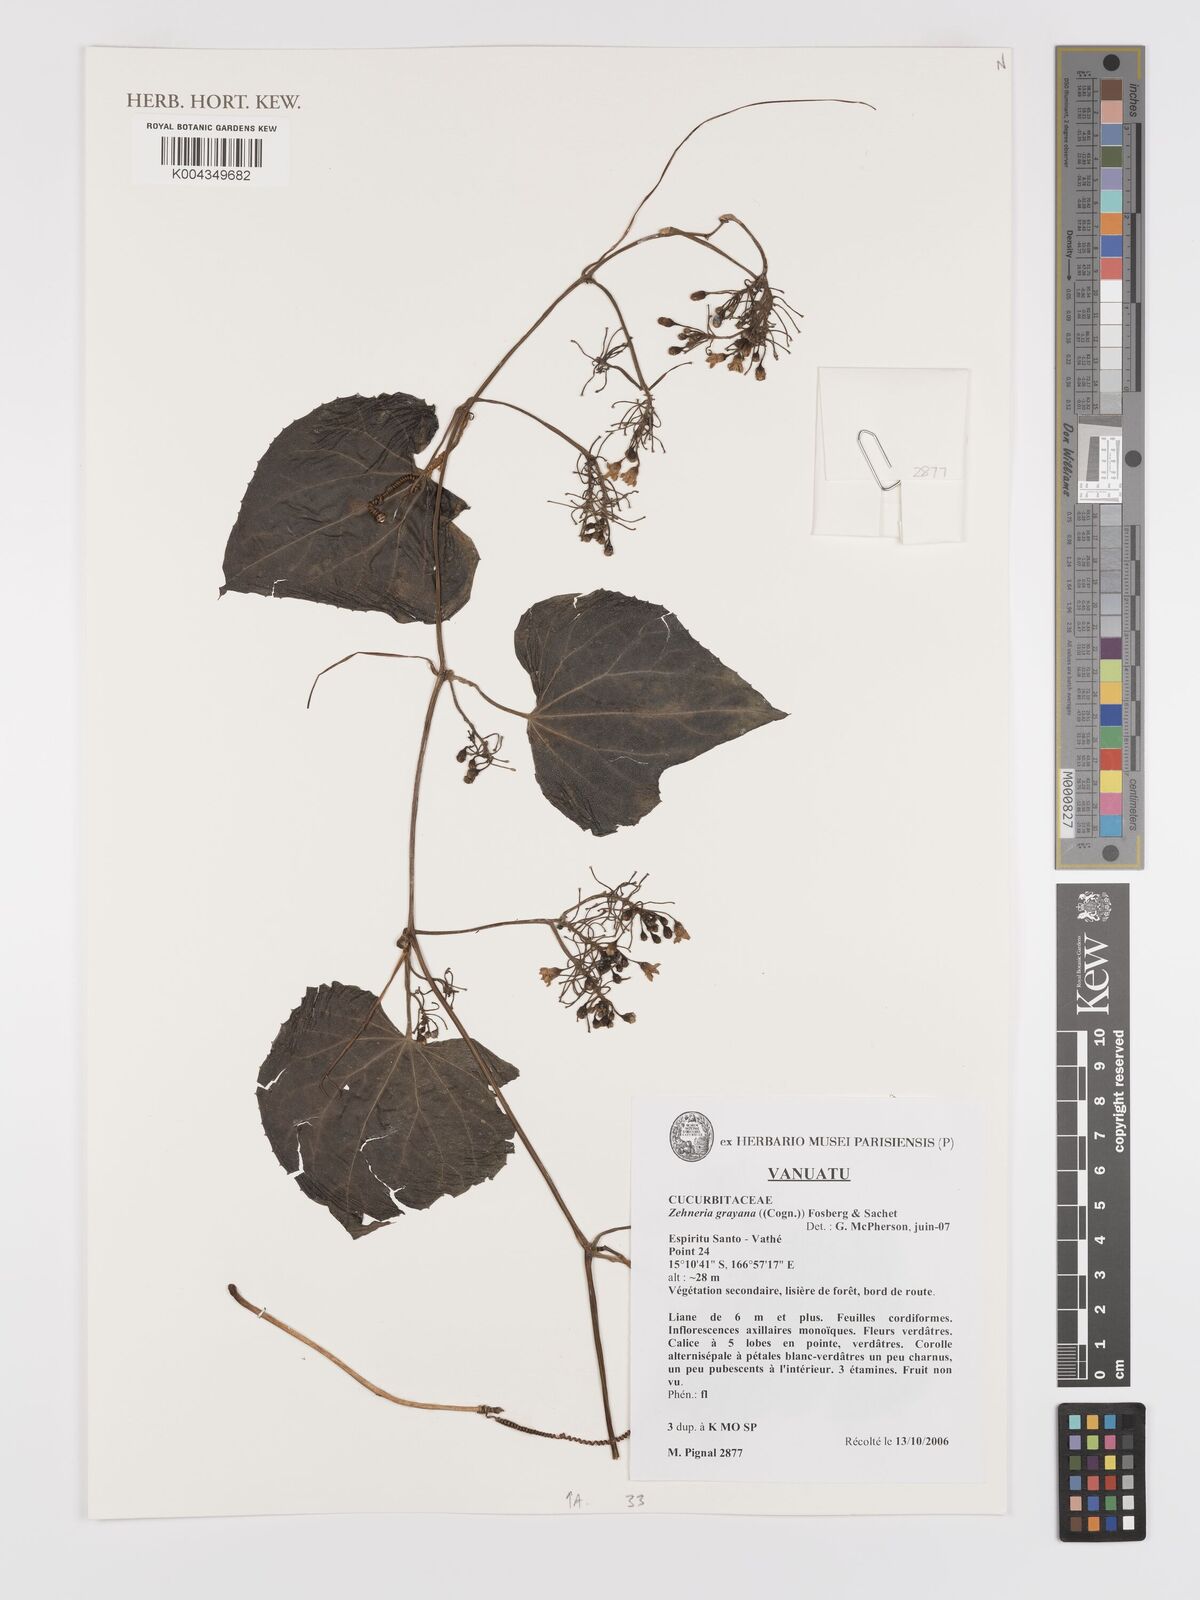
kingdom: Plantae
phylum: Tracheophyta
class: Magnoliopsida
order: Cucurbitales
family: Cucurbitaceae
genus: Zehneria
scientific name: Zehneria mucronata
